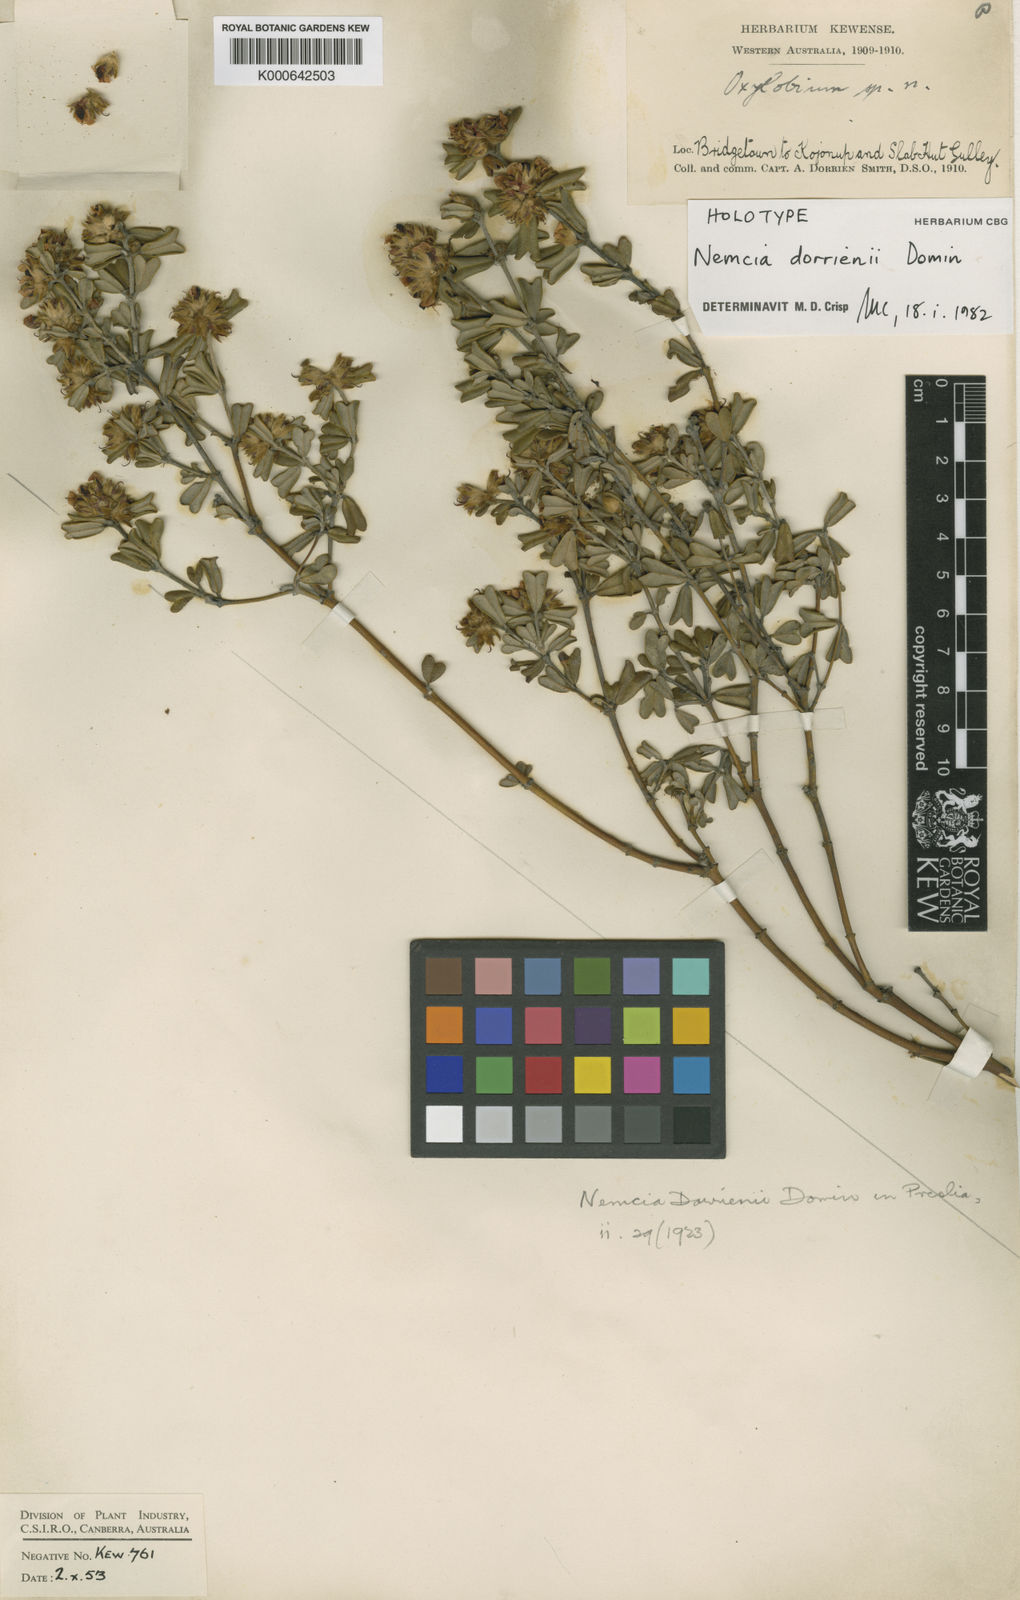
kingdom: Plantae
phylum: Tracheophyta
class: Magnoliopsida
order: Fabales
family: Fabaceae
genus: Gastrolobium
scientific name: Gastrolobium dorrienii
